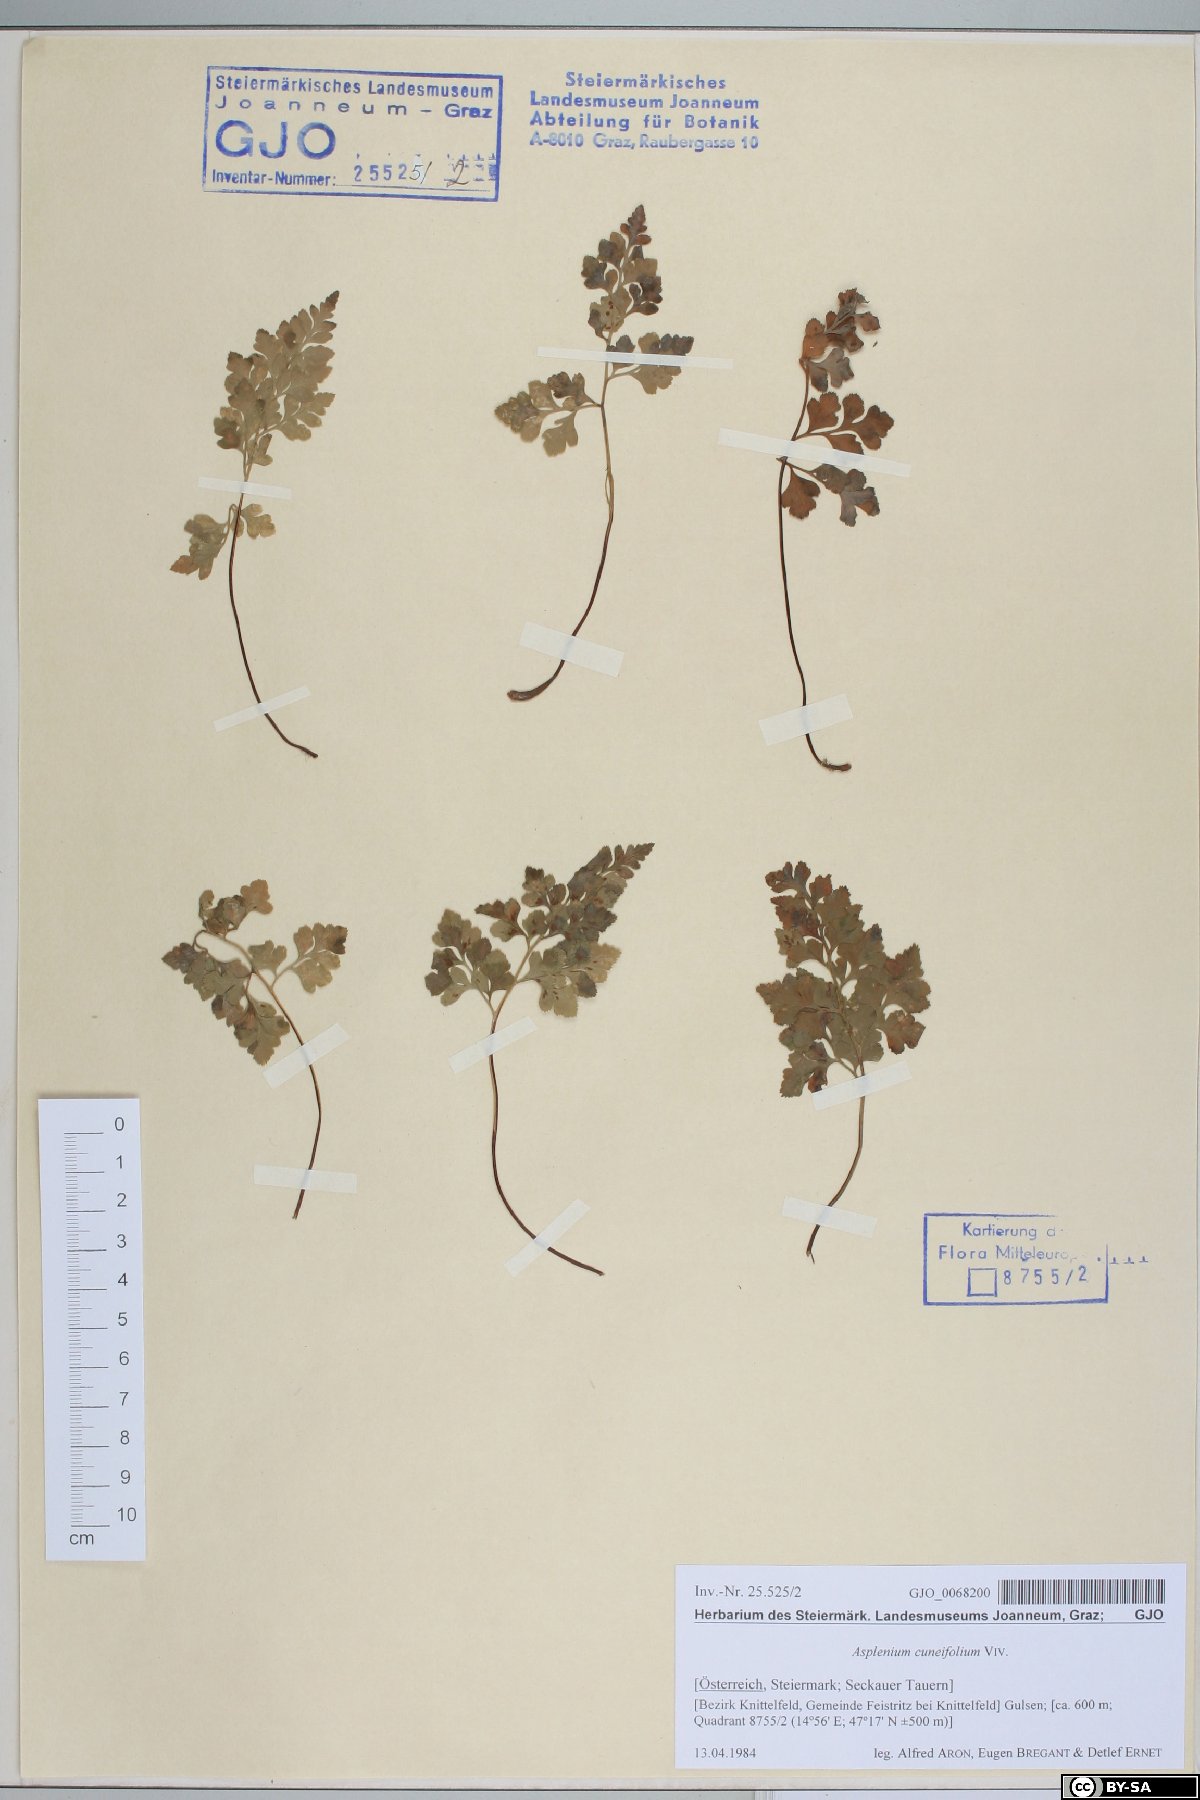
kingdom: Plantae
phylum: Tracheophyta
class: Polypodiopsida
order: Polypodiales
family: Aspleniaceae
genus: Asplenium
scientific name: Asplenium cuneifolium
